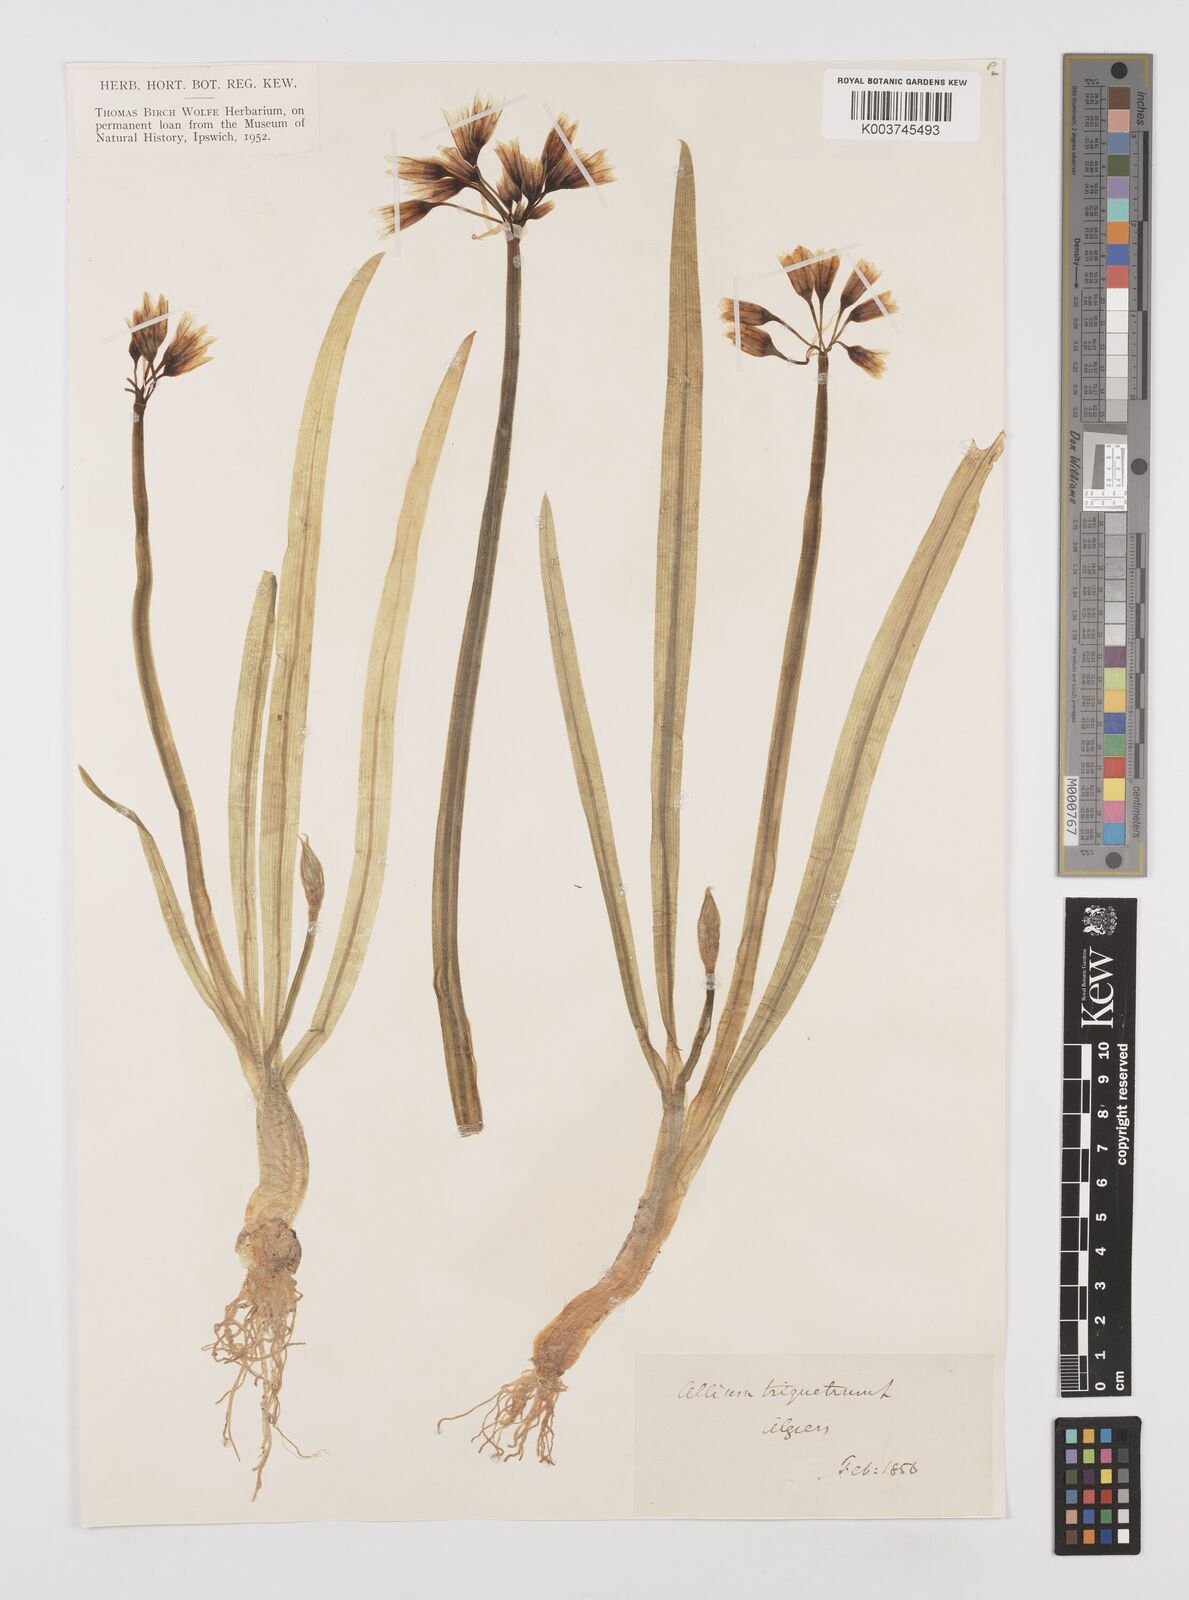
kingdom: Plantae
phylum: Tracheophyta
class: Liliopsida
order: Asparagales
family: Amaryllidaceae
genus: Allium
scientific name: Allium triquetrum
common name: Three-cornered garlic
